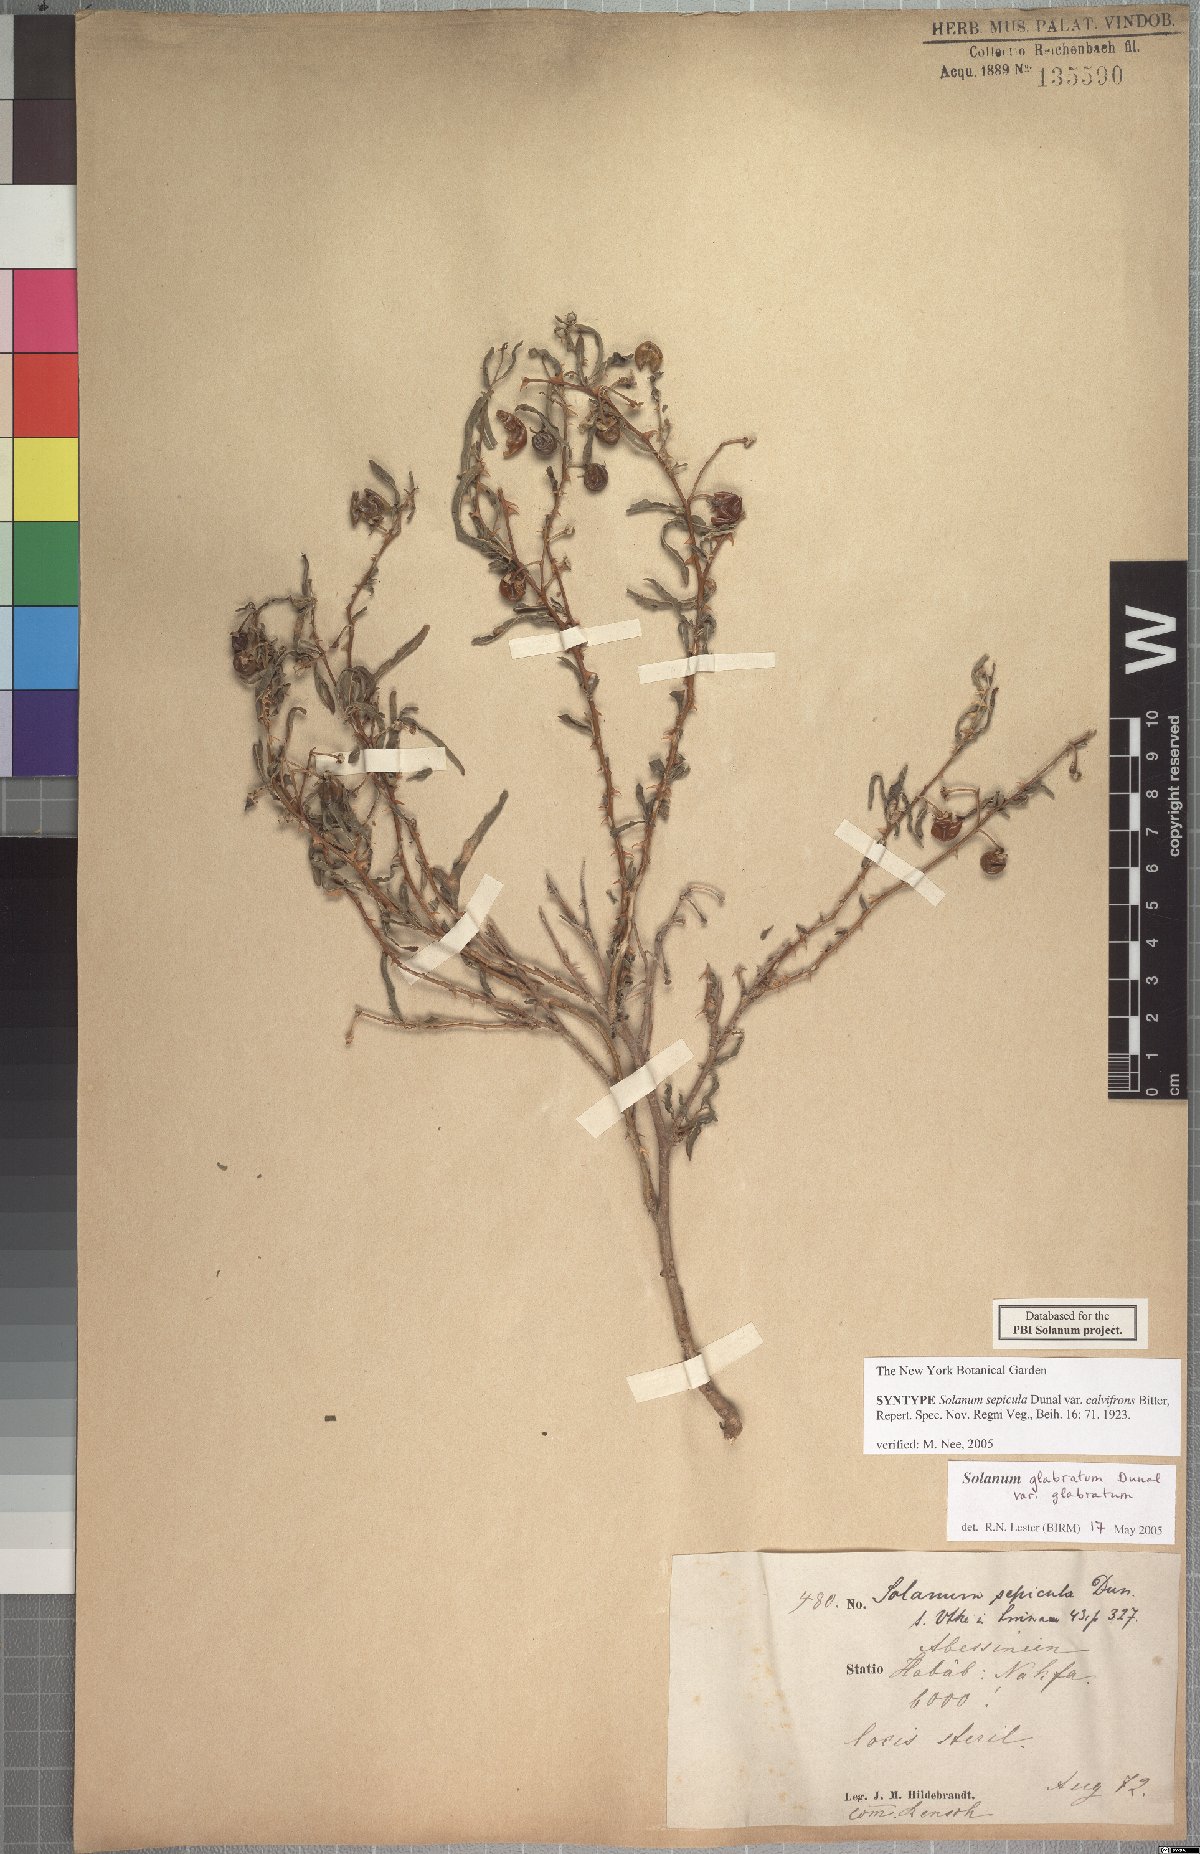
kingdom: Plantae
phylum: Tracheophyta
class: Magnoliopsida
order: Solanales
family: Solanaceae
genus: Solanum
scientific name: Solanum glabratum
